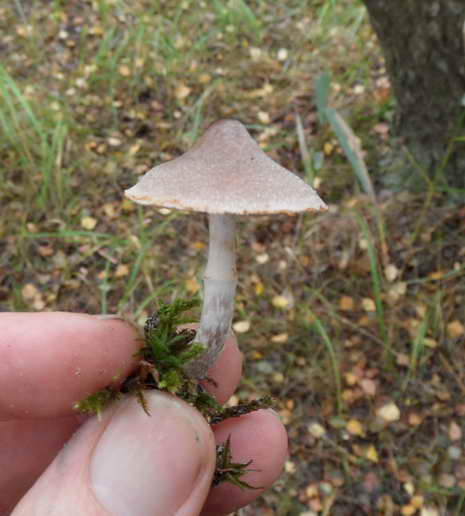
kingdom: Fungi
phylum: Basidiomycota
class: Agaricomycetes
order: Agaricales
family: Cortinariaceae
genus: Cortinarius
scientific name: Cortinarius hemitrichus
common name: hvidfnugget slørhat
